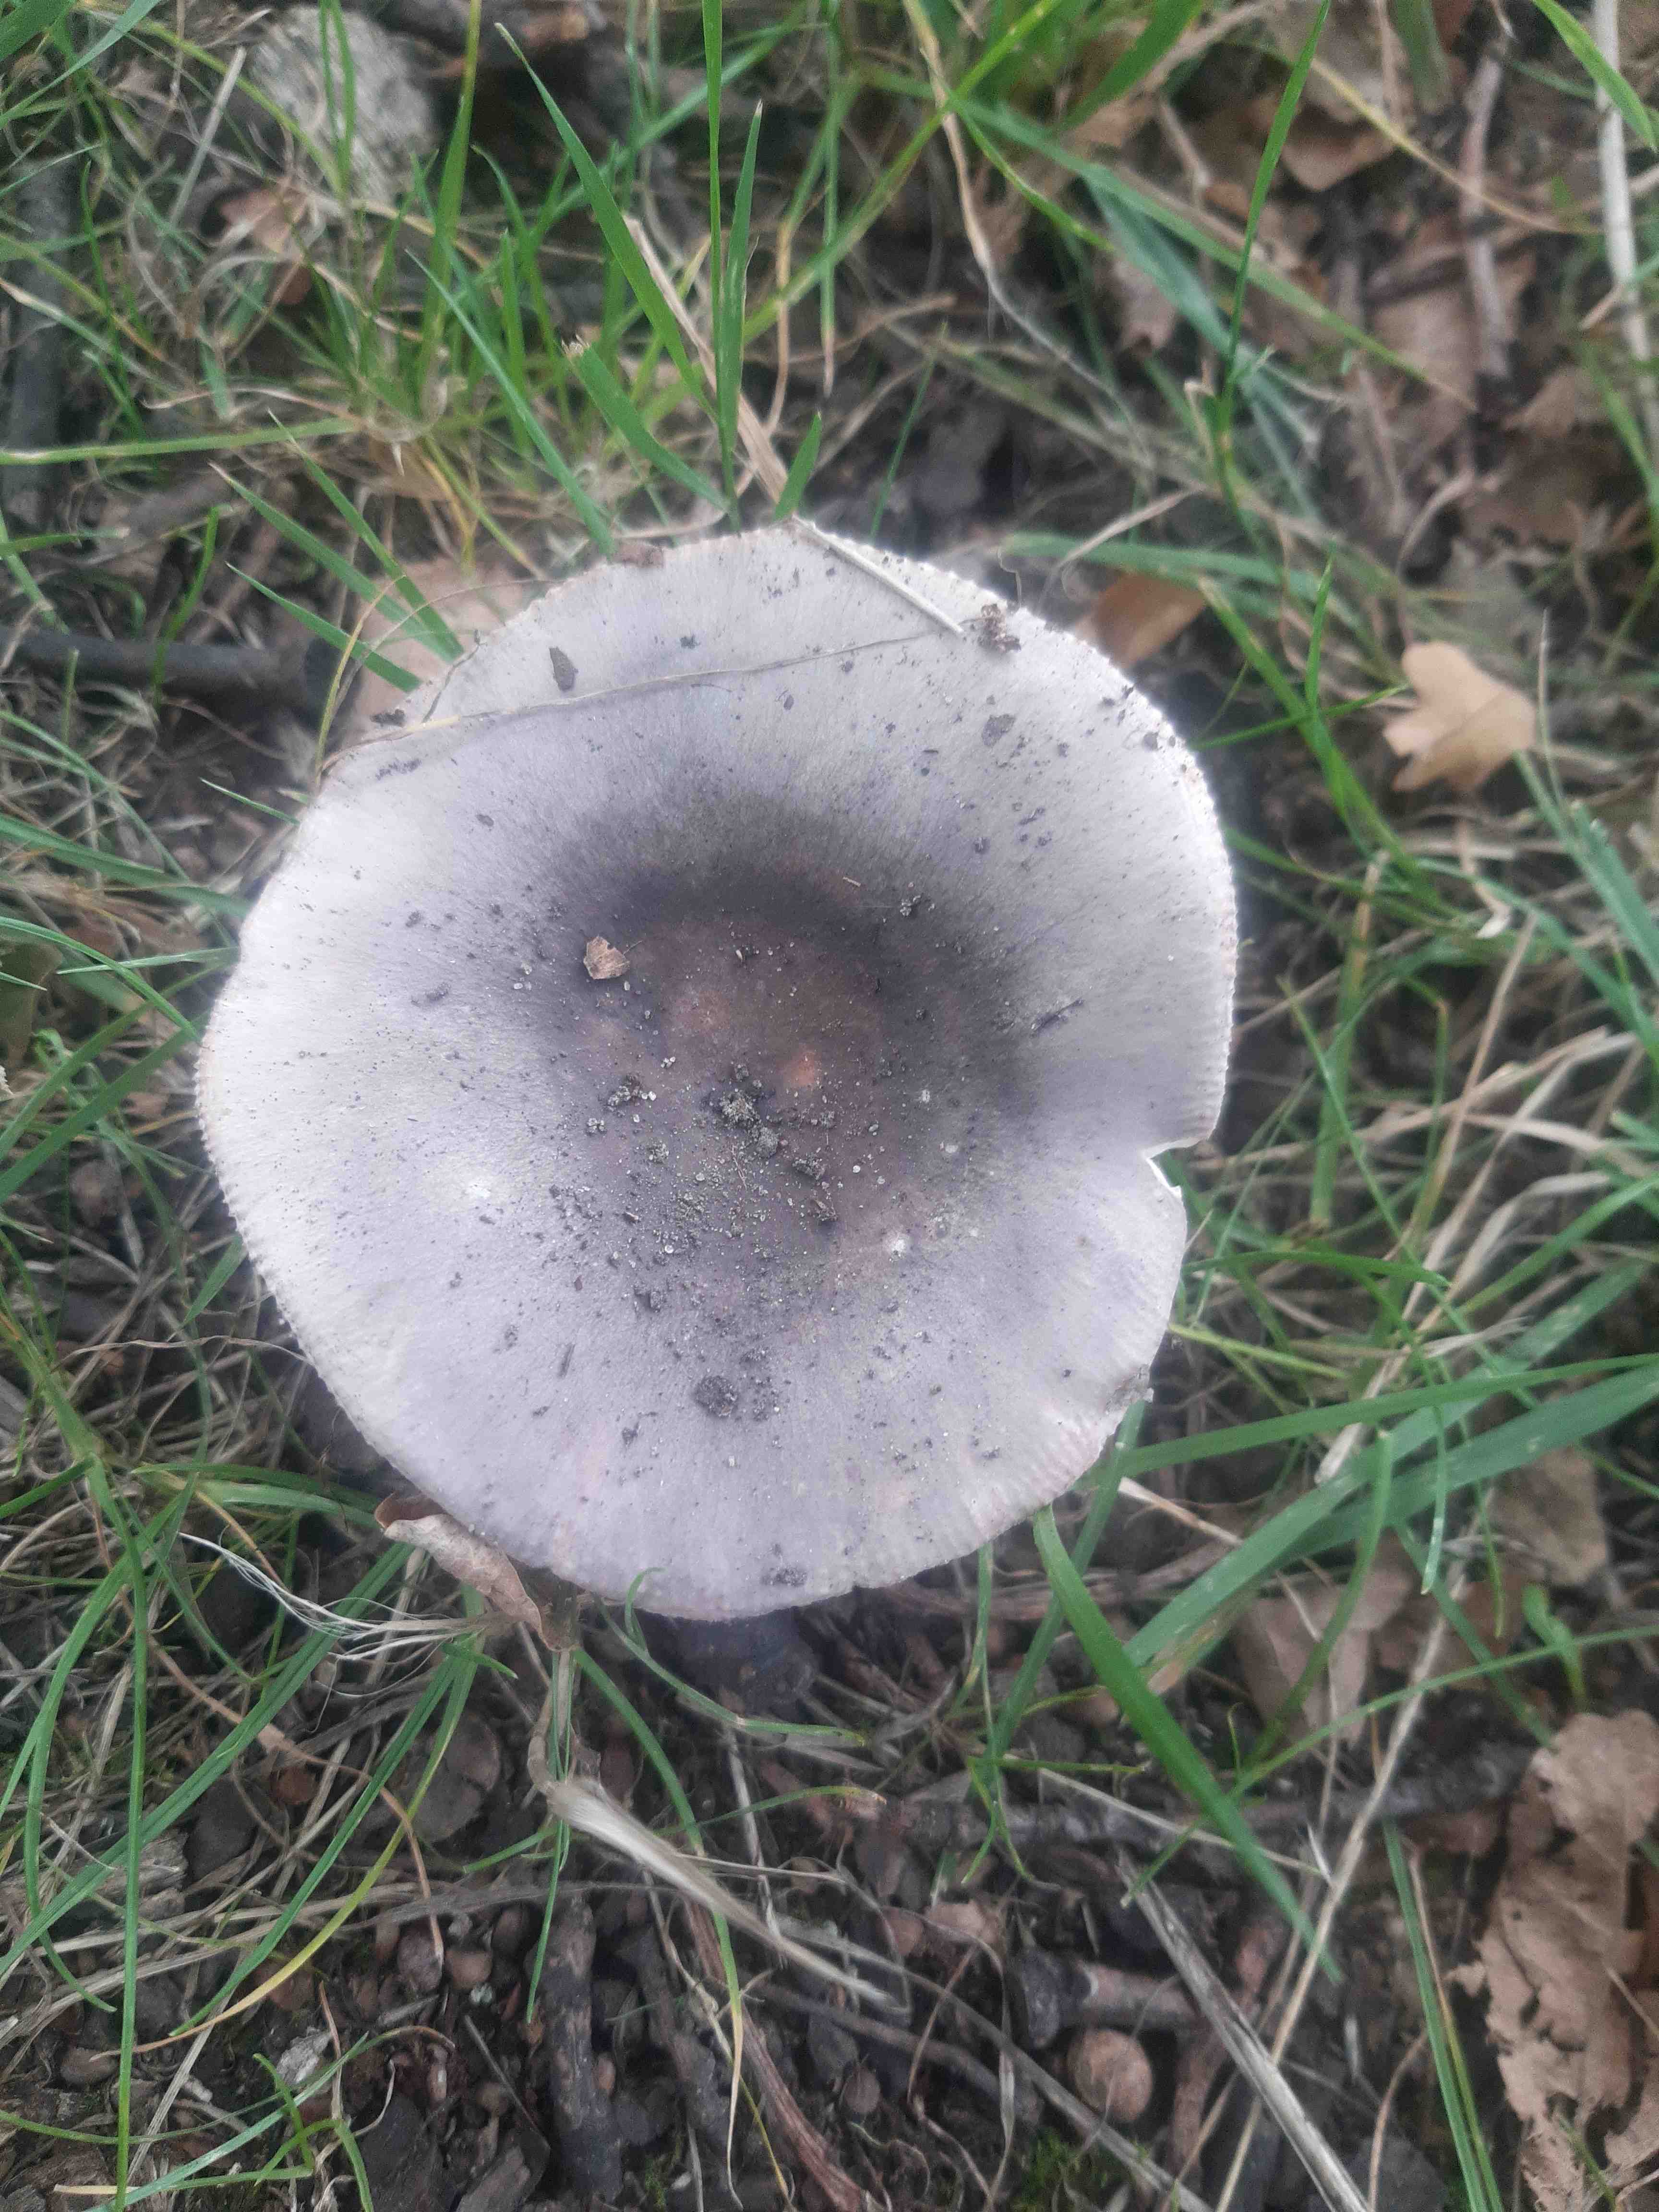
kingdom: Fungi
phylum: Basidiomycota
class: Agaricomycetes
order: Russulales
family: Russulaceae
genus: Russula
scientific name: Russula
